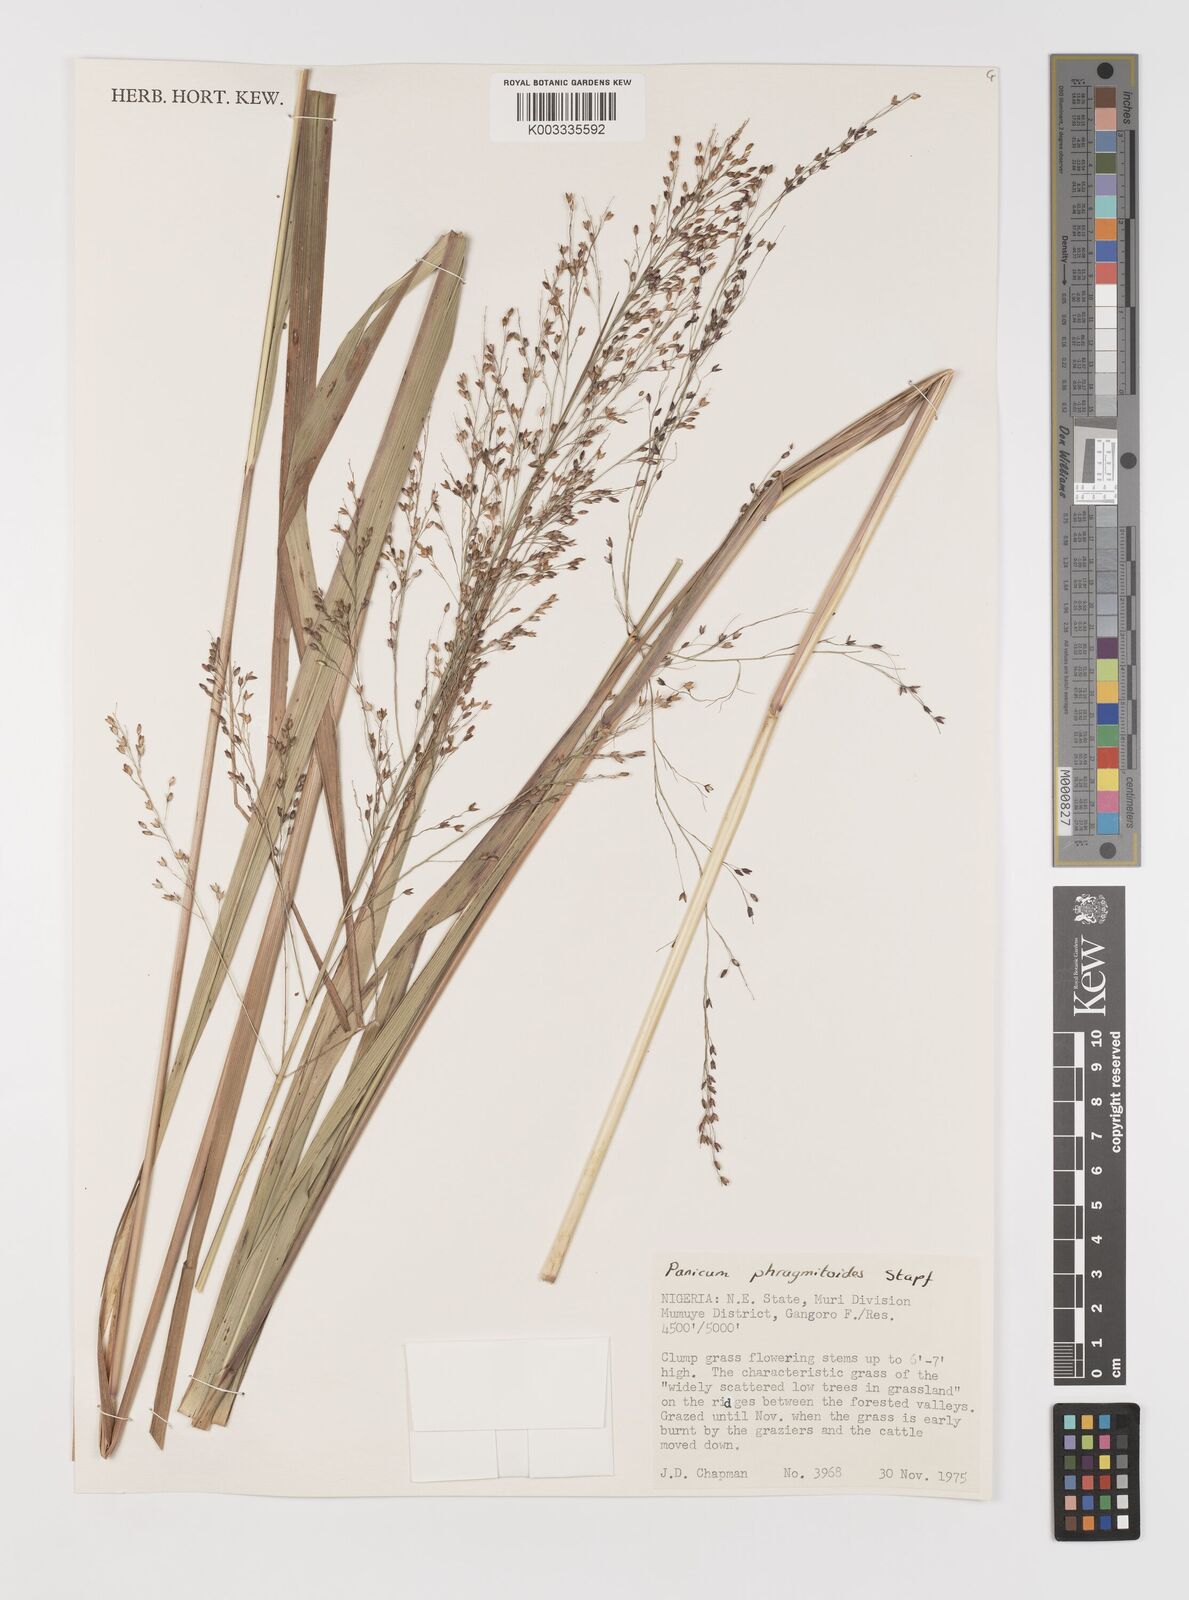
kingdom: Plantae
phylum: Tracheophyta
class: Liliopsida
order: Poales
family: Poaceae
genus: Panicum
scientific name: Panicum phragmitoides
